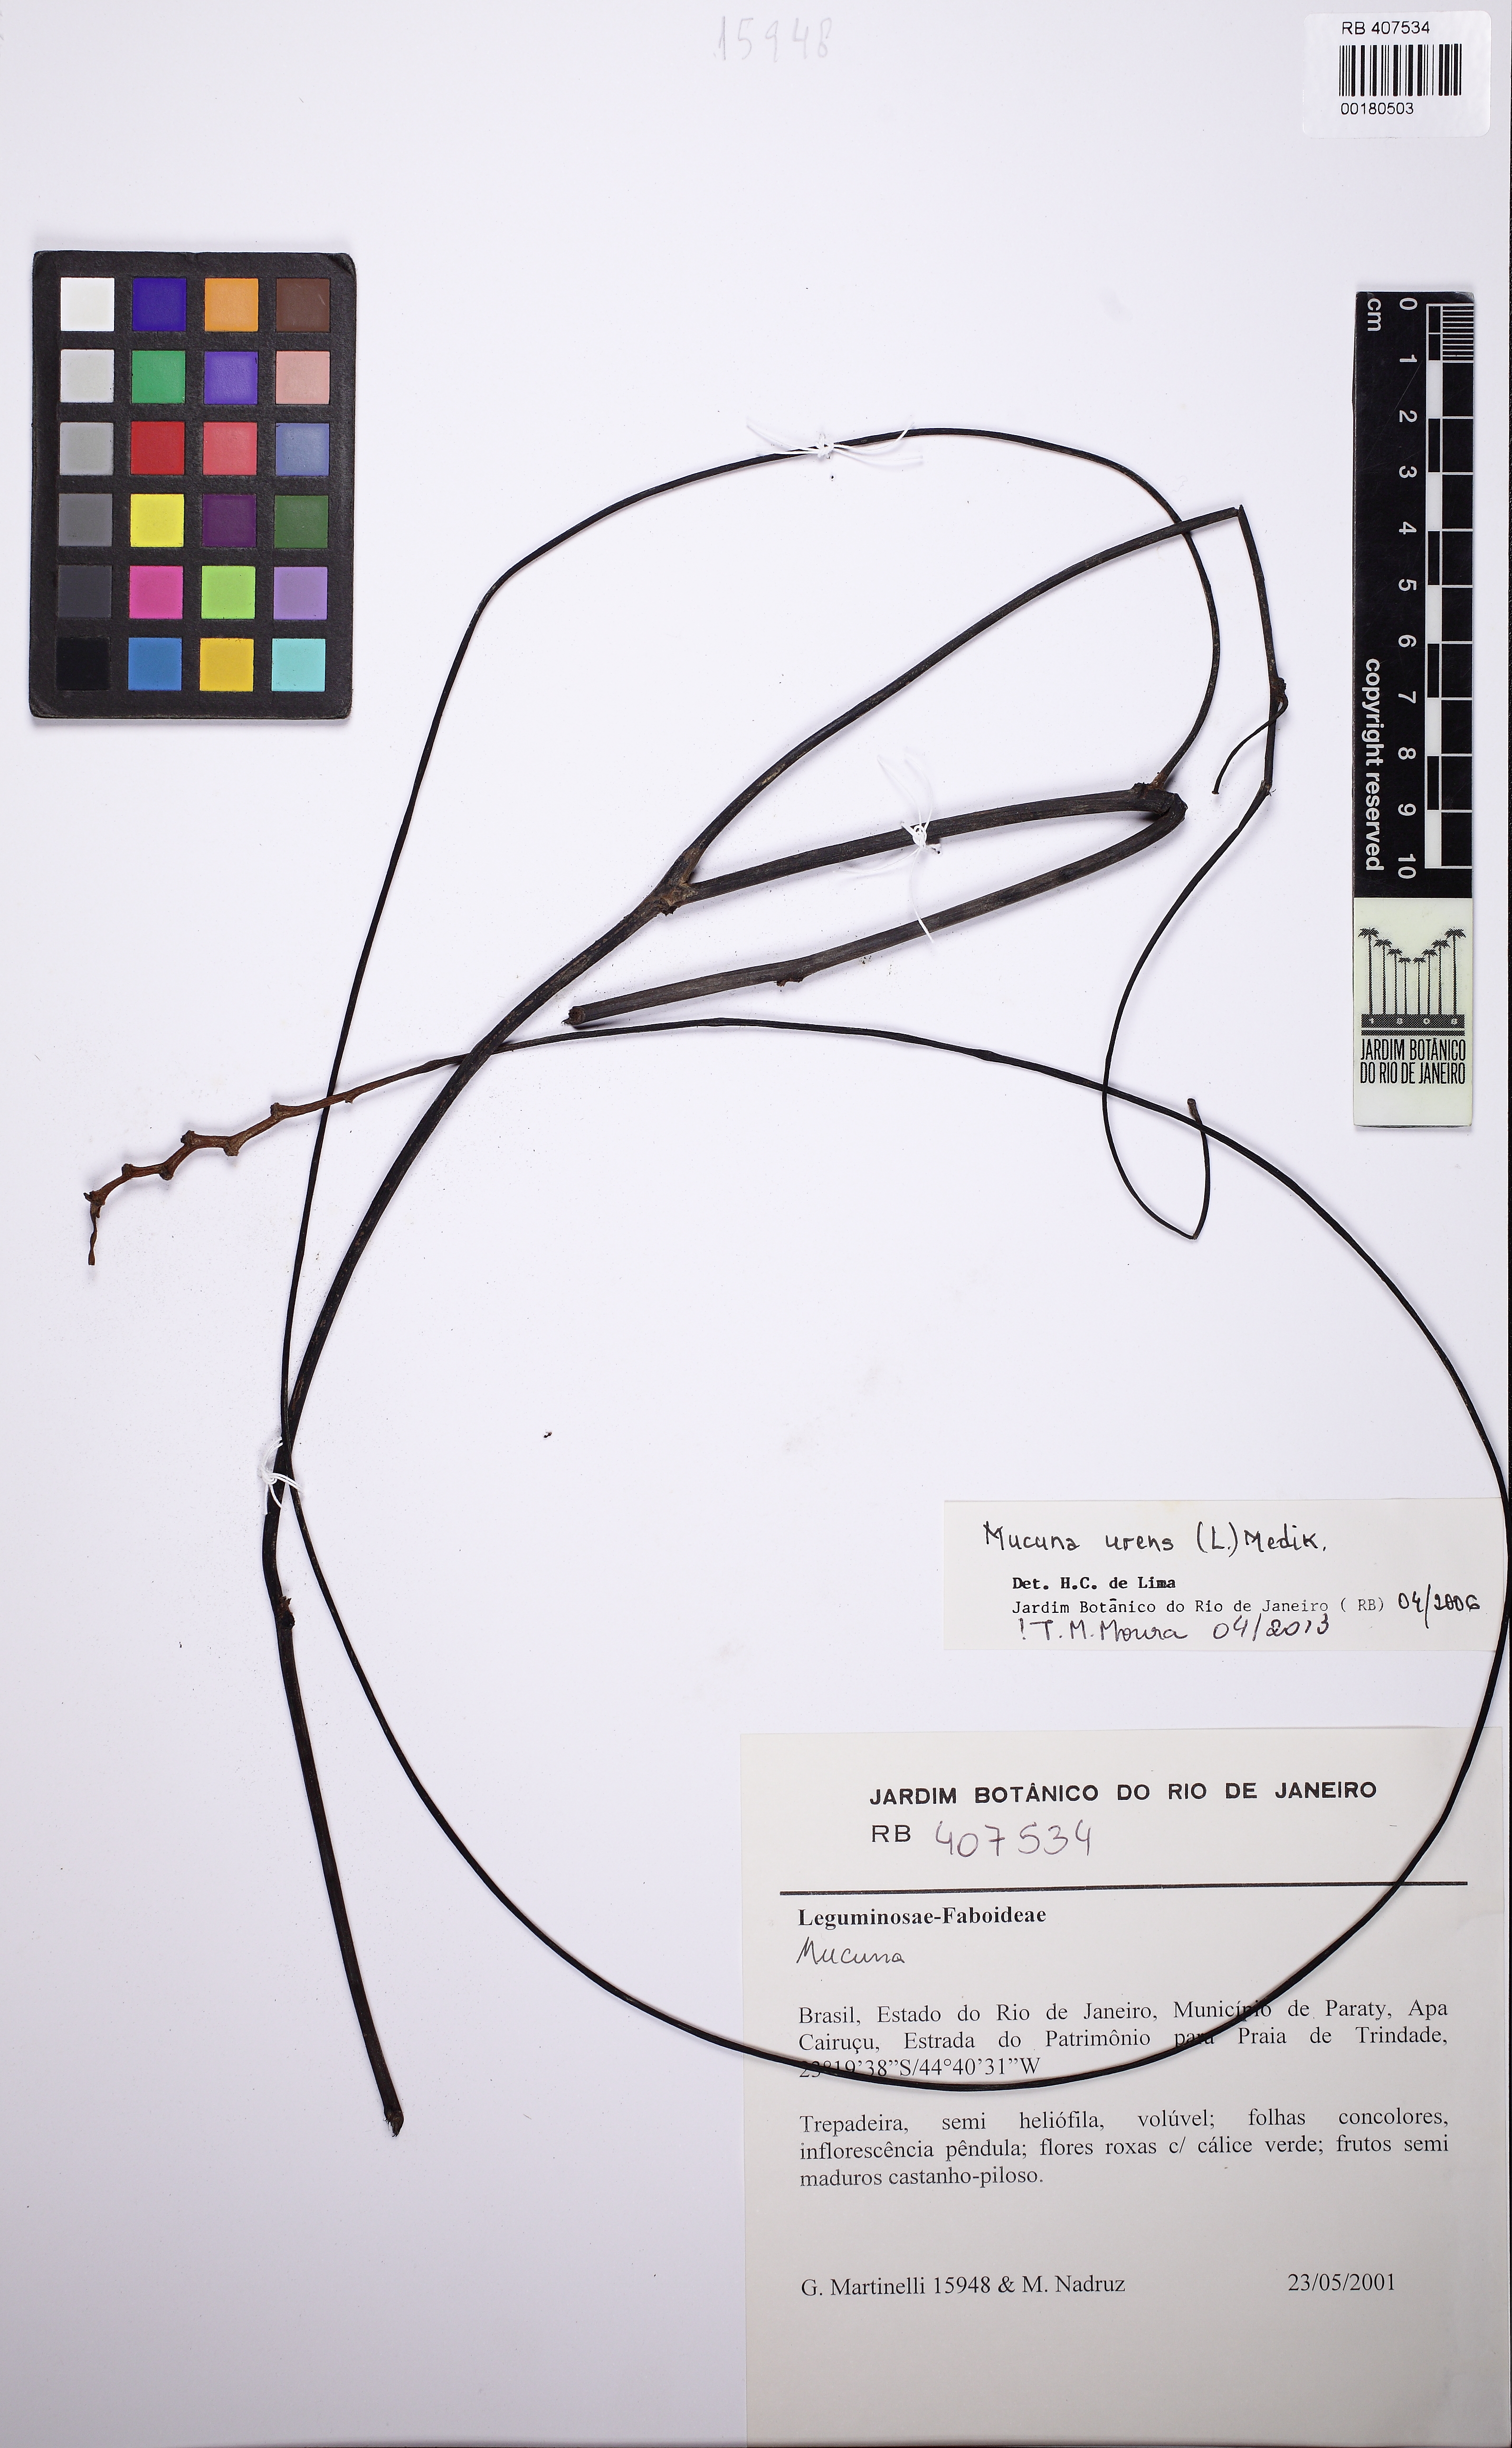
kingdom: Plantae
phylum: Tracheophyta
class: Magnoliopsida
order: Fabales
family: Fabaceae
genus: Mucuna
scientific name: Mucuna urens
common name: Red hamburger bean
